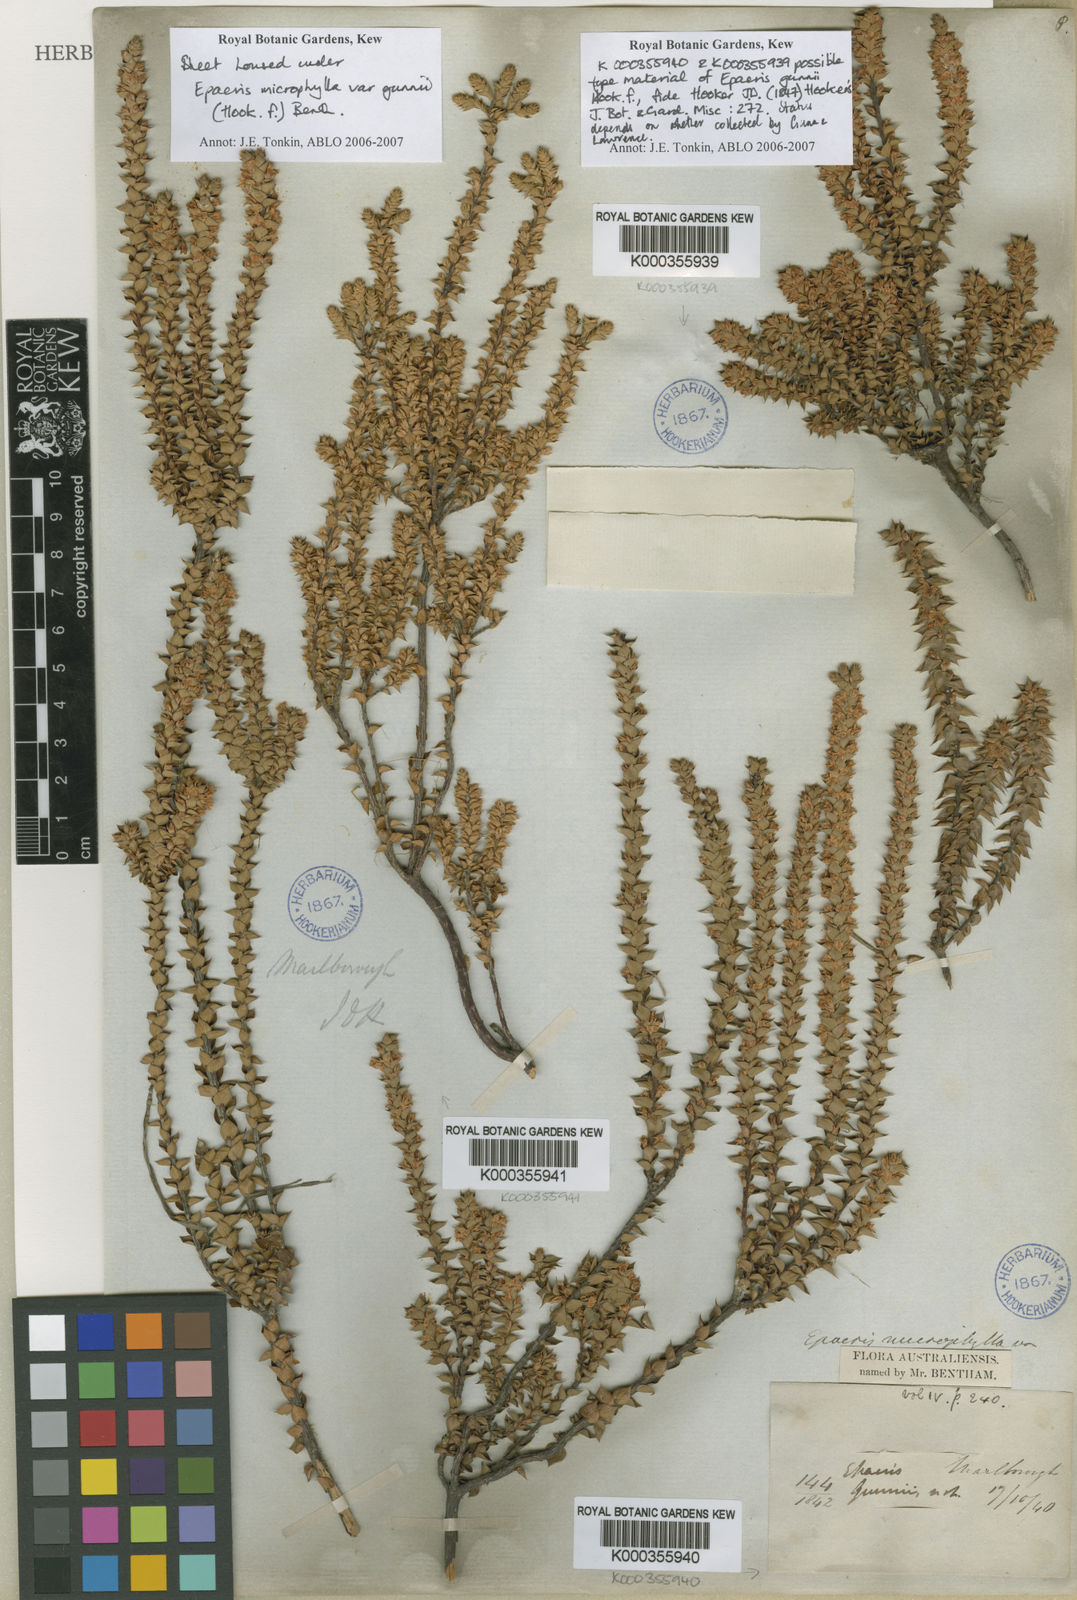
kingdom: Plantae
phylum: Tracheophyta
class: Magnoliopsida
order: Ericales
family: Ericaceae
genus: Epacris
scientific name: Epacris microphylla
